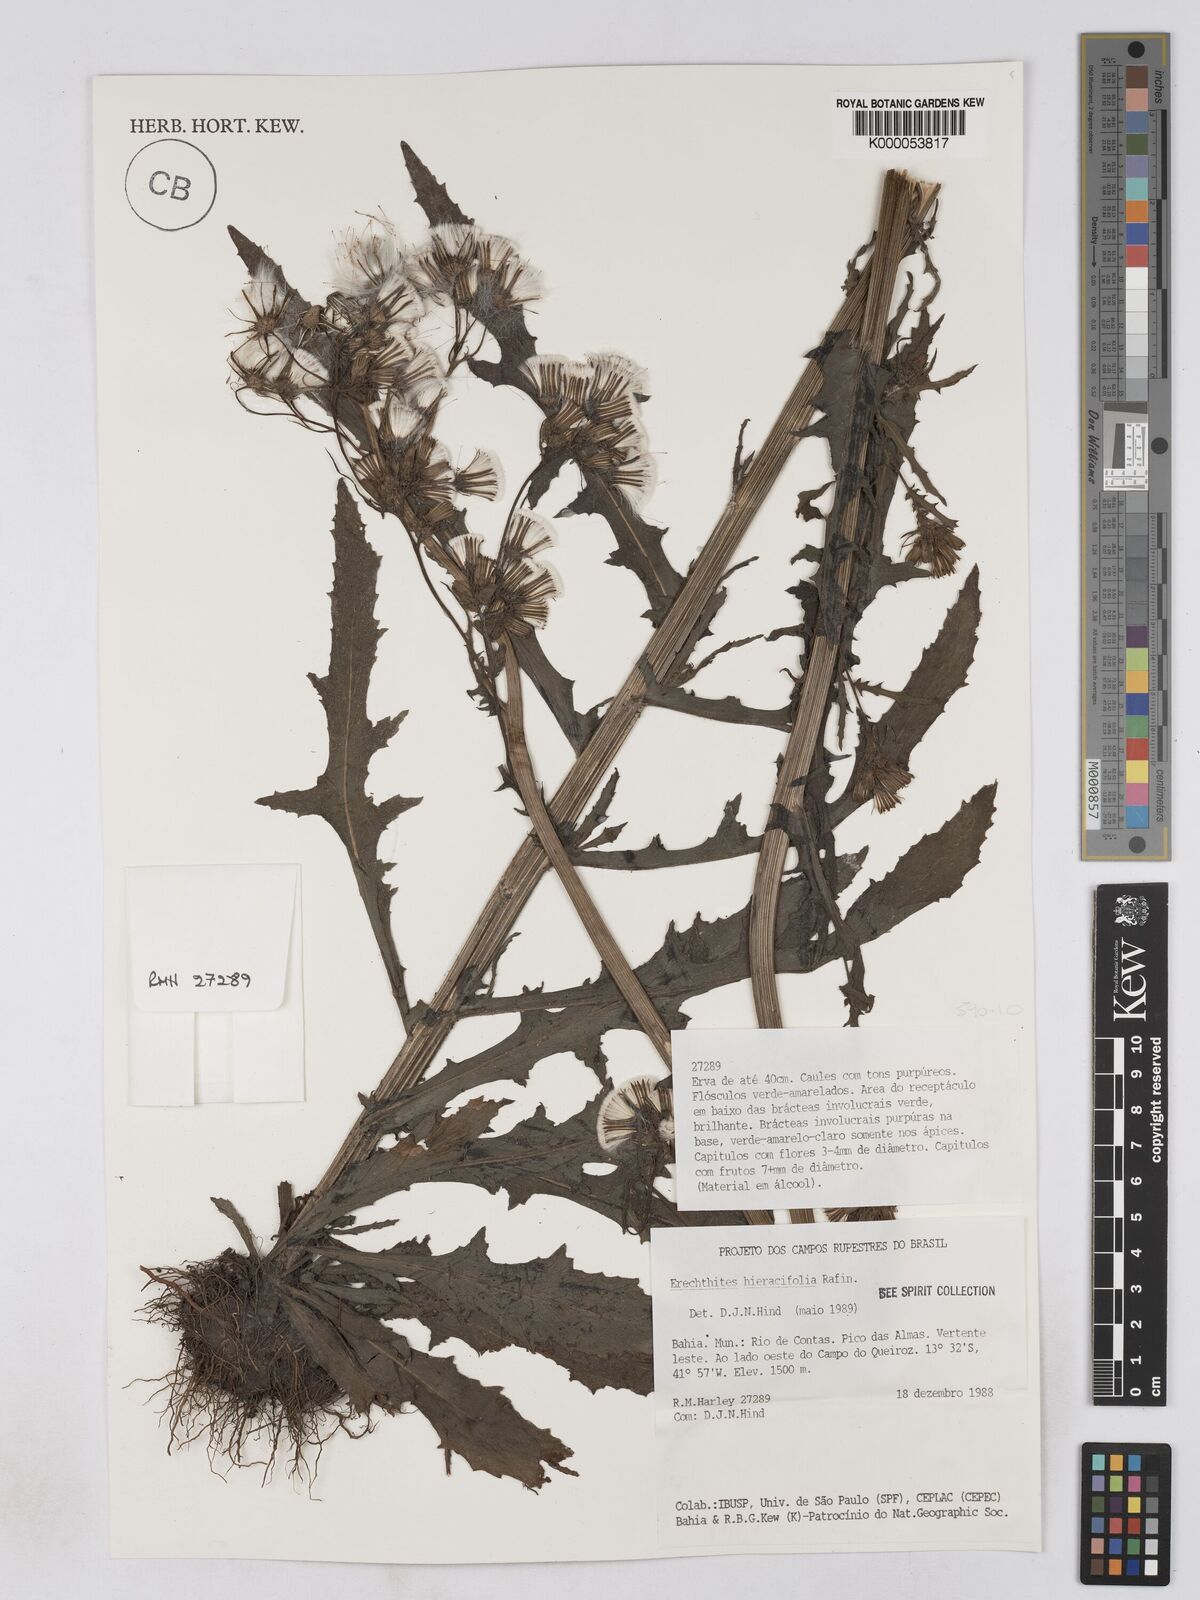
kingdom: Plantae
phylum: Tracheophyta
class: Magnoliopsida
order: Asterales
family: Asteraceae
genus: Erechtites
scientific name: Erechtites hieraciifolius
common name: American burnweed
